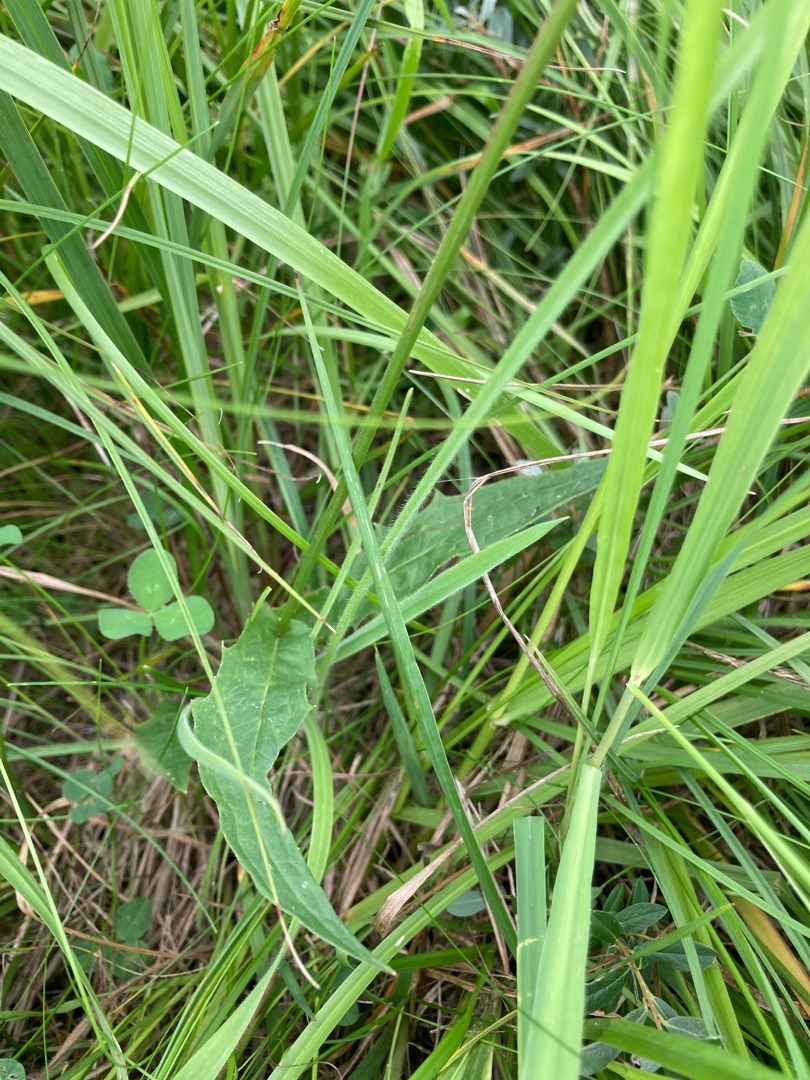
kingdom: Plantae
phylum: Tracheophyta
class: Magnoliopsida
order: Asterales
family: Asteraceae
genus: Crepis
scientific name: Crepis paludosa
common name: Kær-høgeskæg
